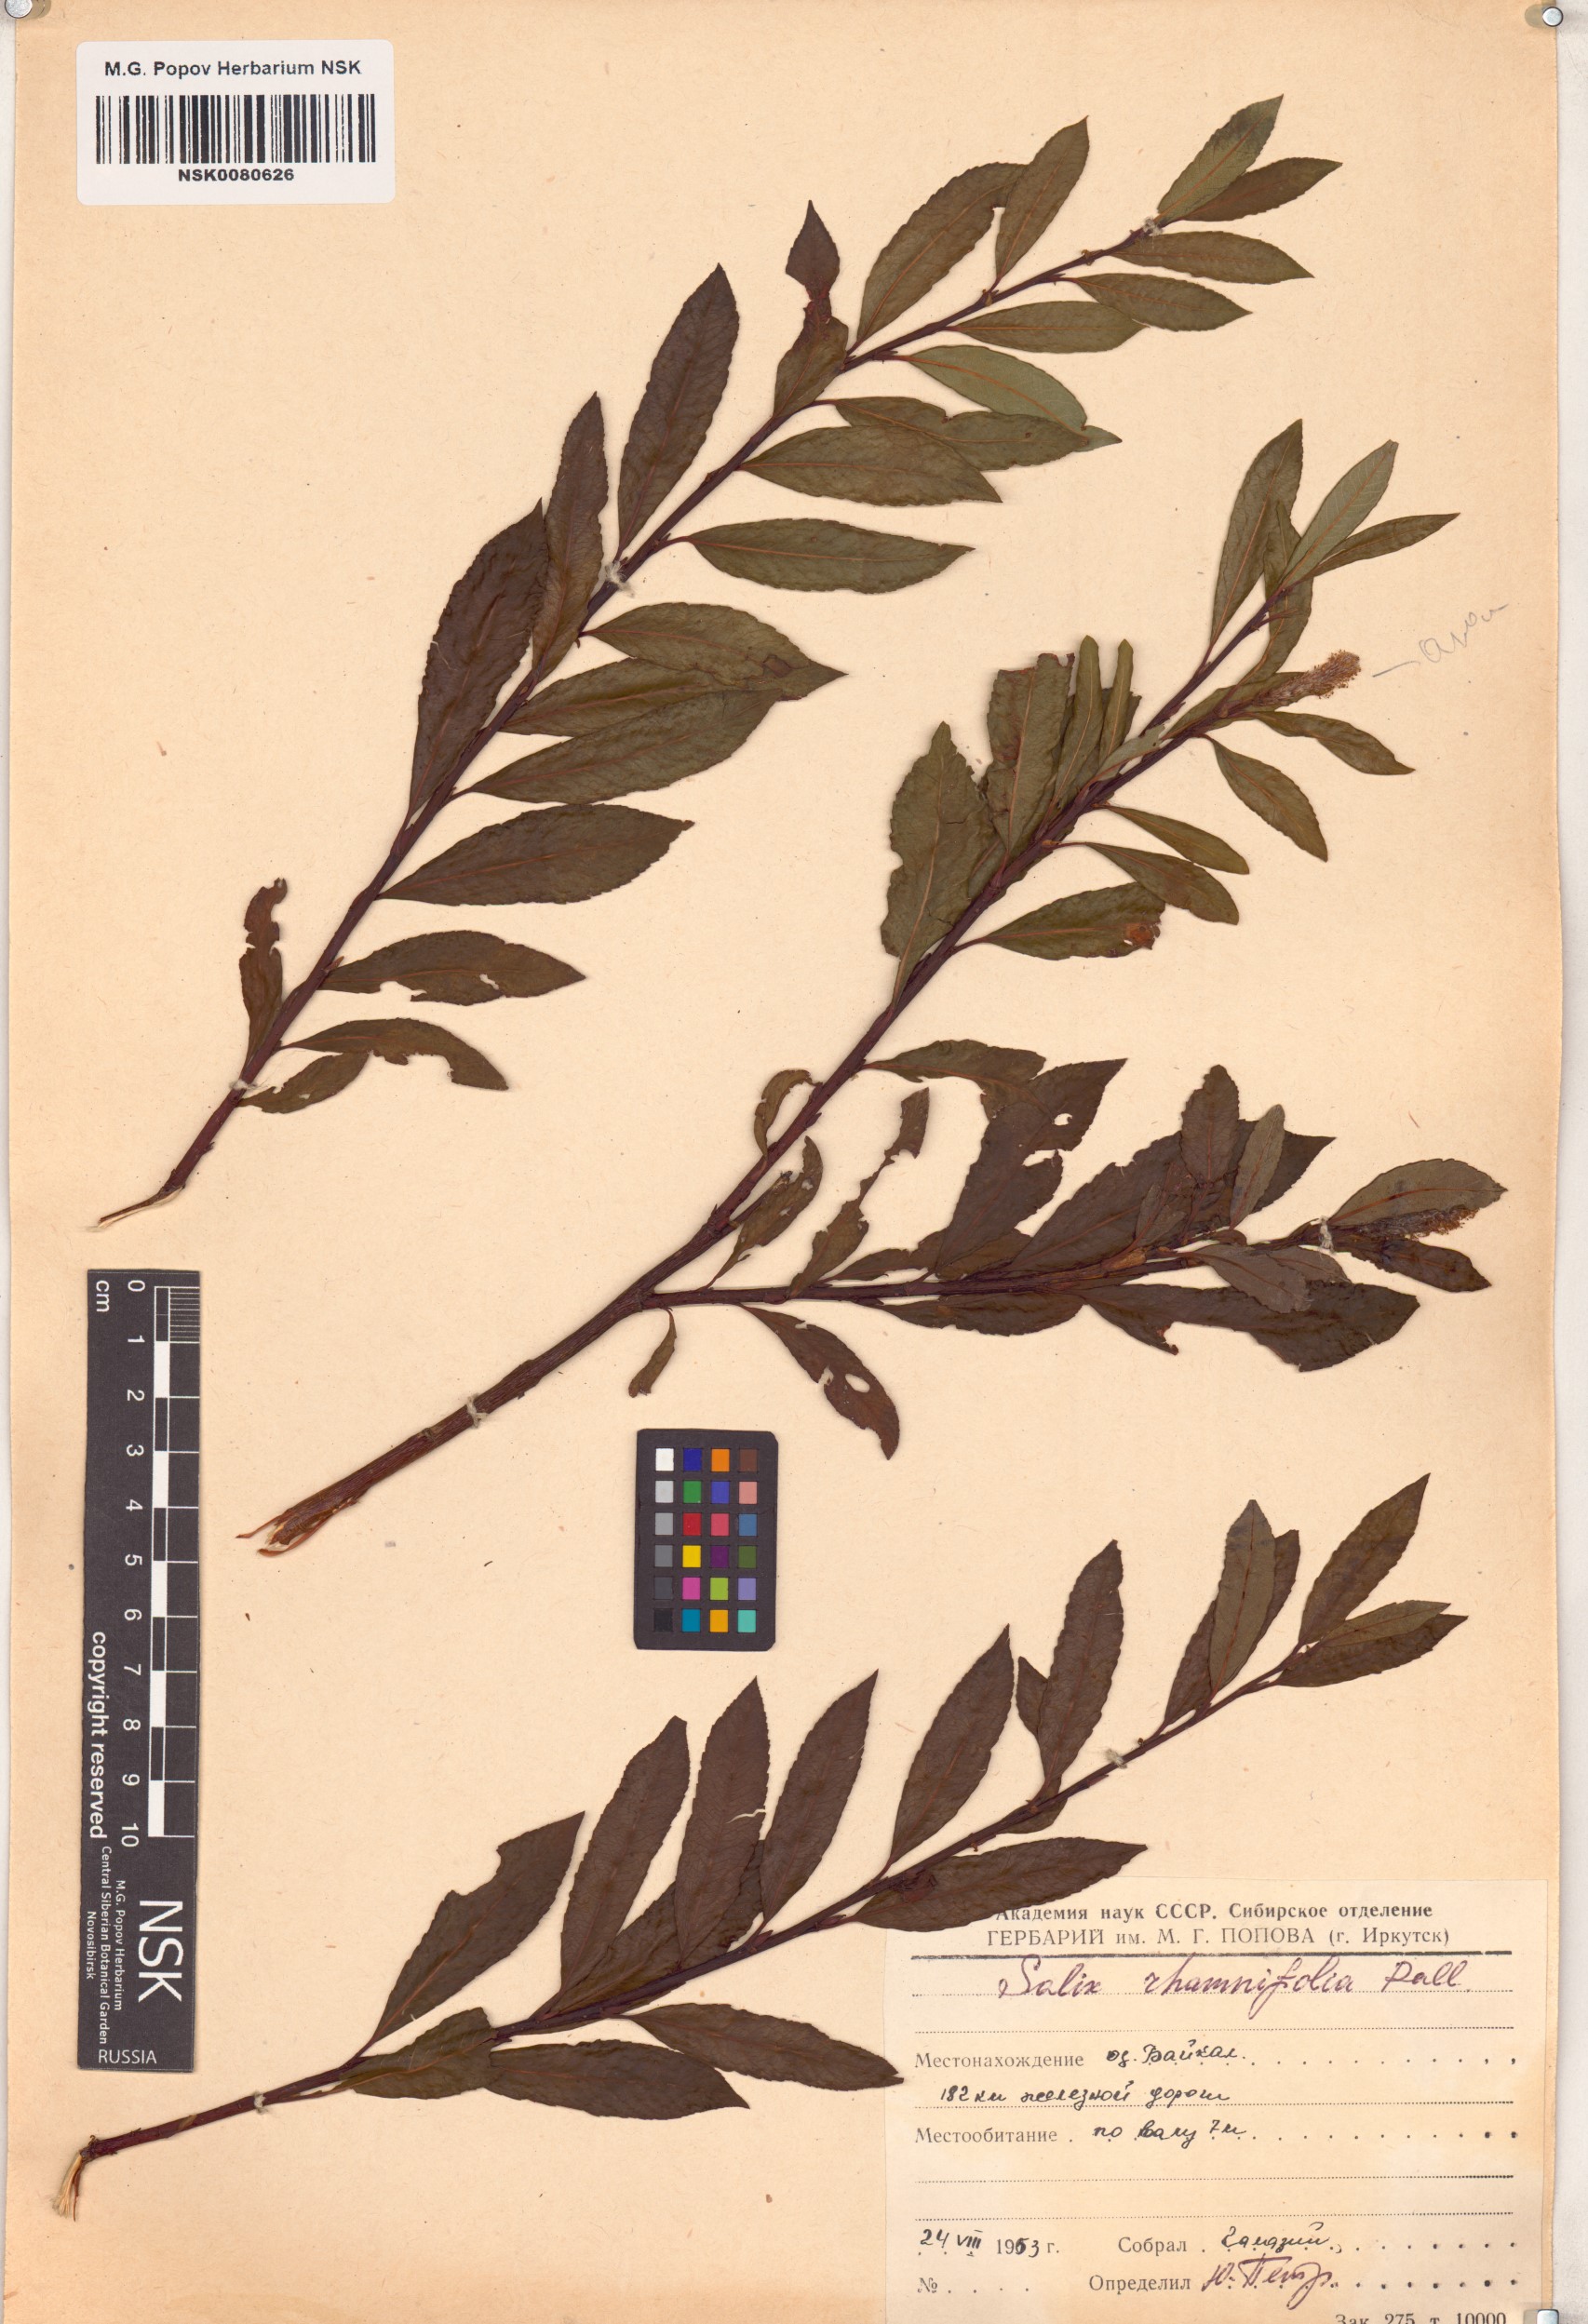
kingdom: Plantae
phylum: Tracheophyta
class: Magnoliopsida
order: Malpighiales
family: Salicaceae
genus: Salix
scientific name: Salix rhamnifolia
